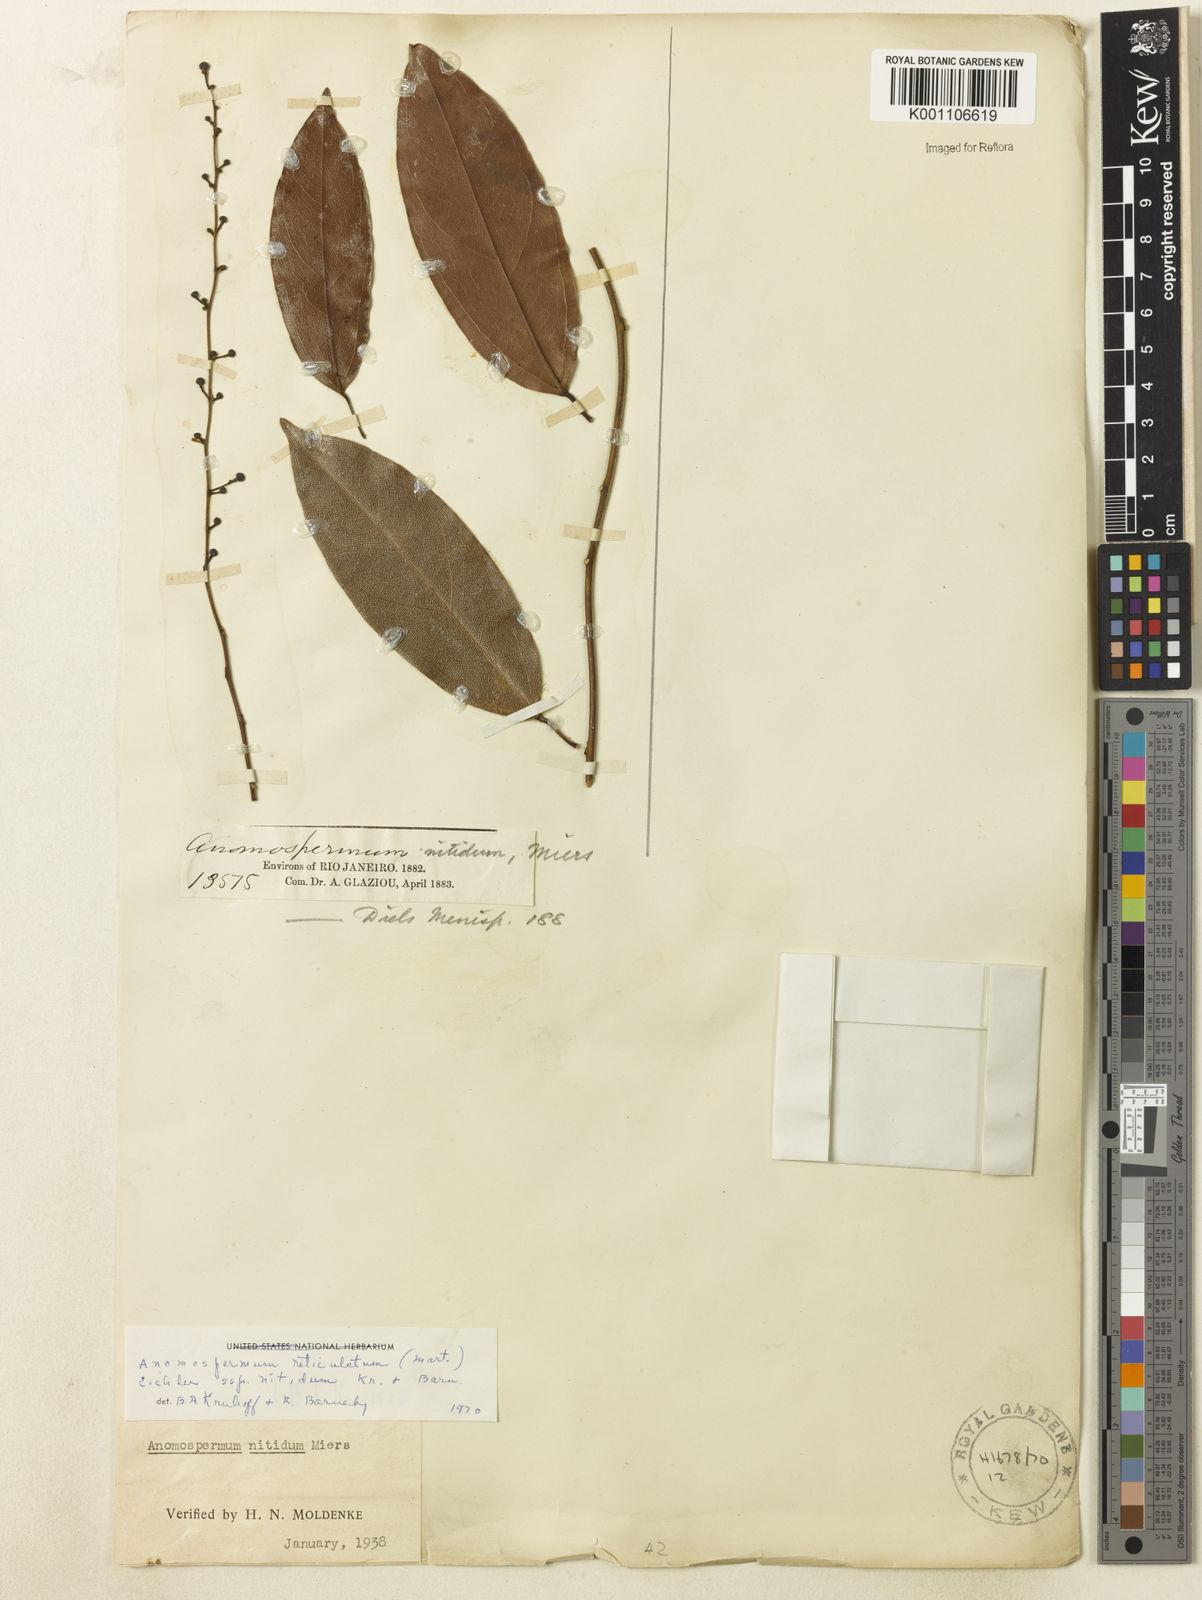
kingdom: Plantae
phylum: Tracheophyta
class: Magnoliopsida
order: Ranunculales
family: Menispermaceae
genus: Anomospermum
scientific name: Anomospermum reticulatum
